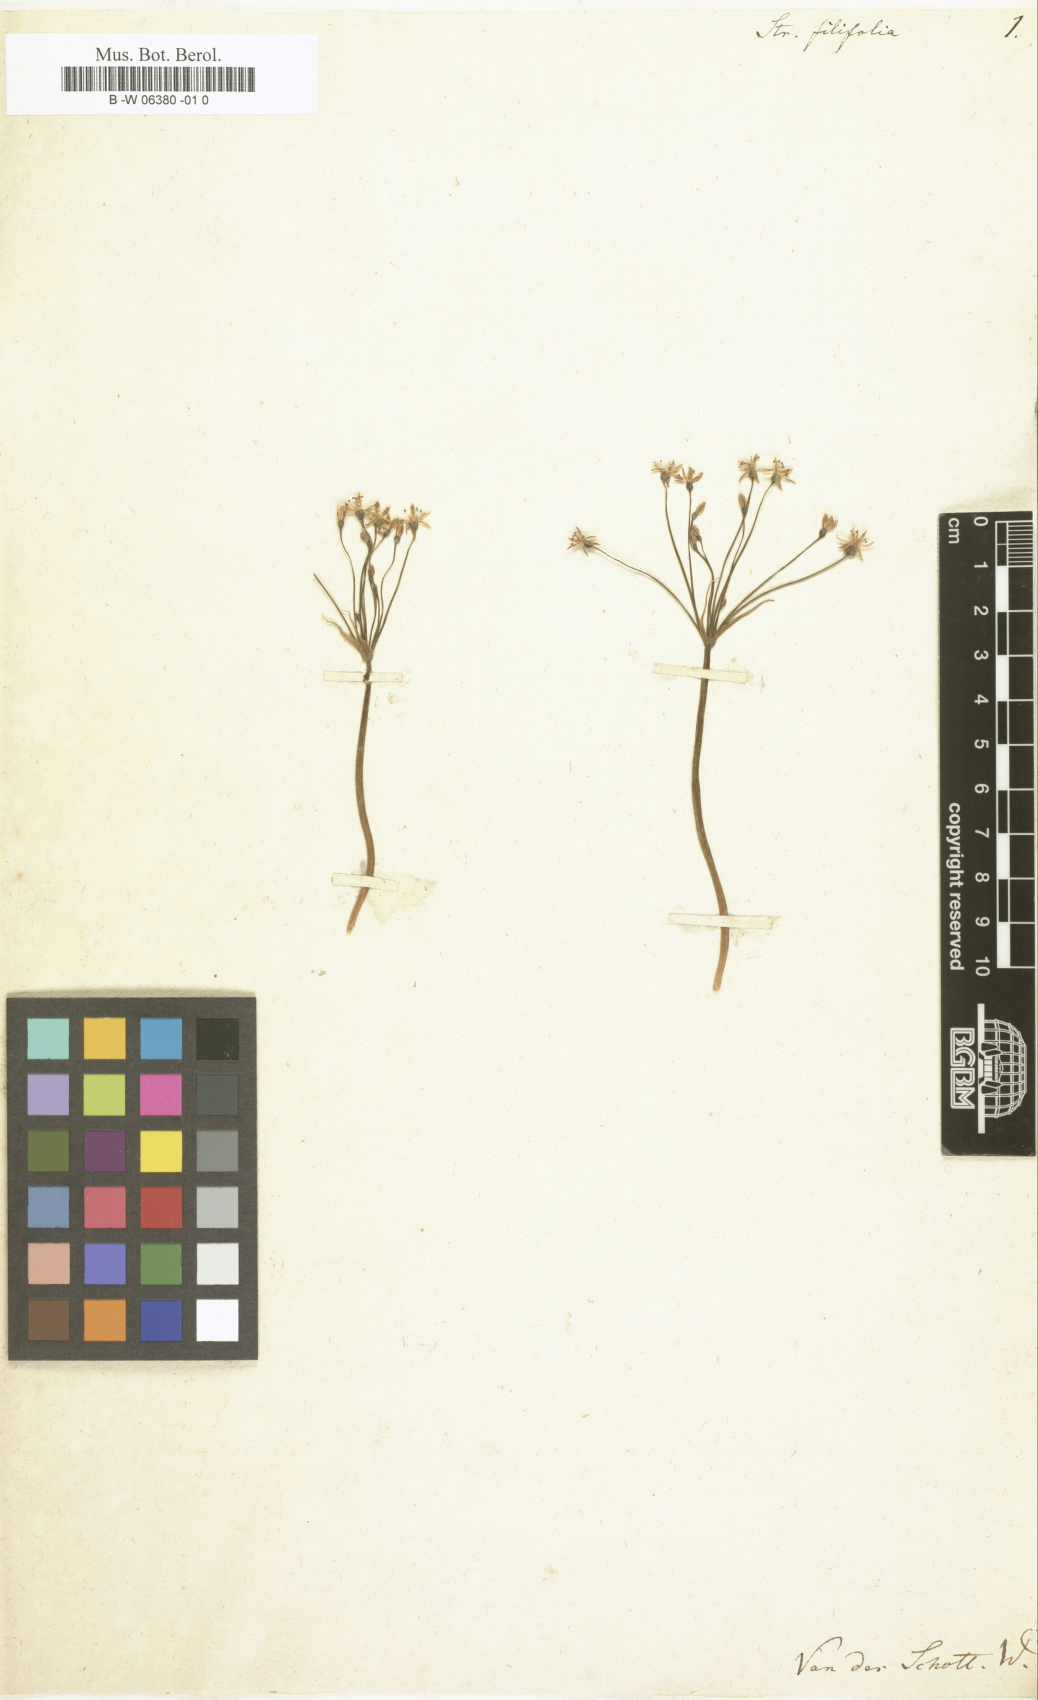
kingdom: Plantae
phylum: Tracheophyta
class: Liliopsida
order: Asparagales
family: Amaryllidaceae
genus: Strumaria
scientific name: Strumaria tenella
